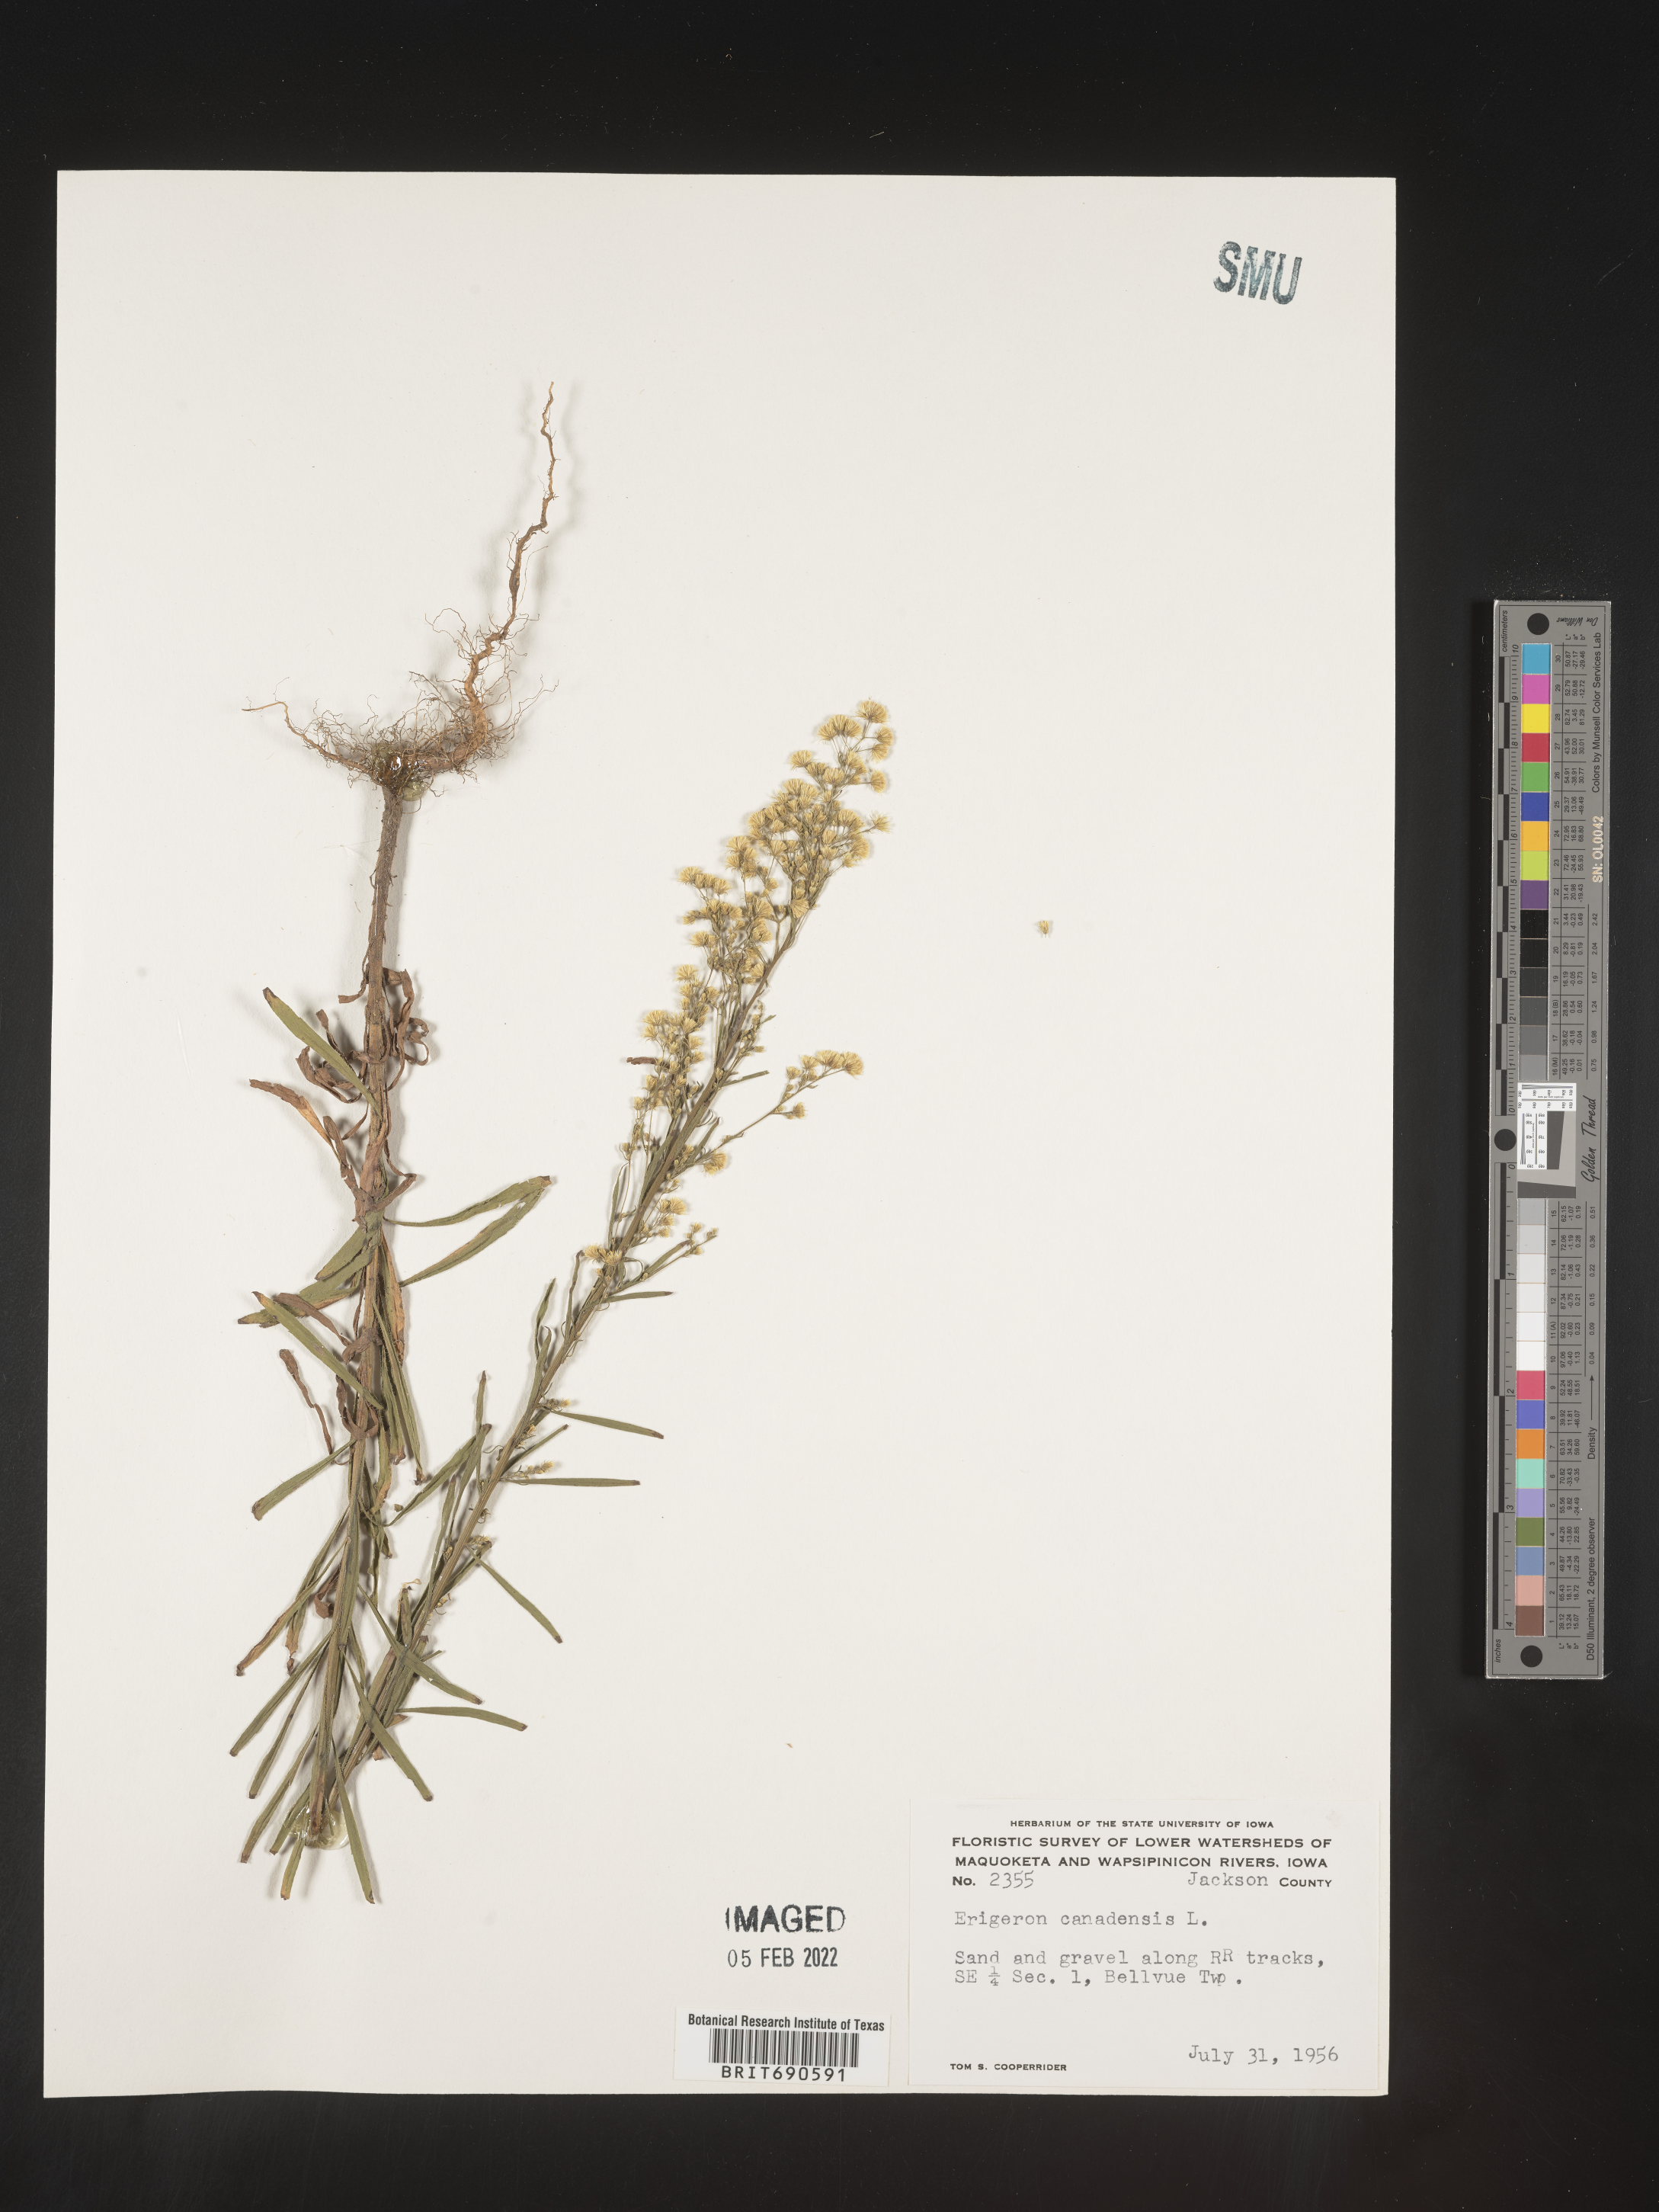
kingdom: Plantae
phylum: Tracheophyta
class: Magnoliopsida
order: Asterales
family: Asteraceae
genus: Erigeron
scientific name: Erigeron canadensis
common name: Canadian fleabane
